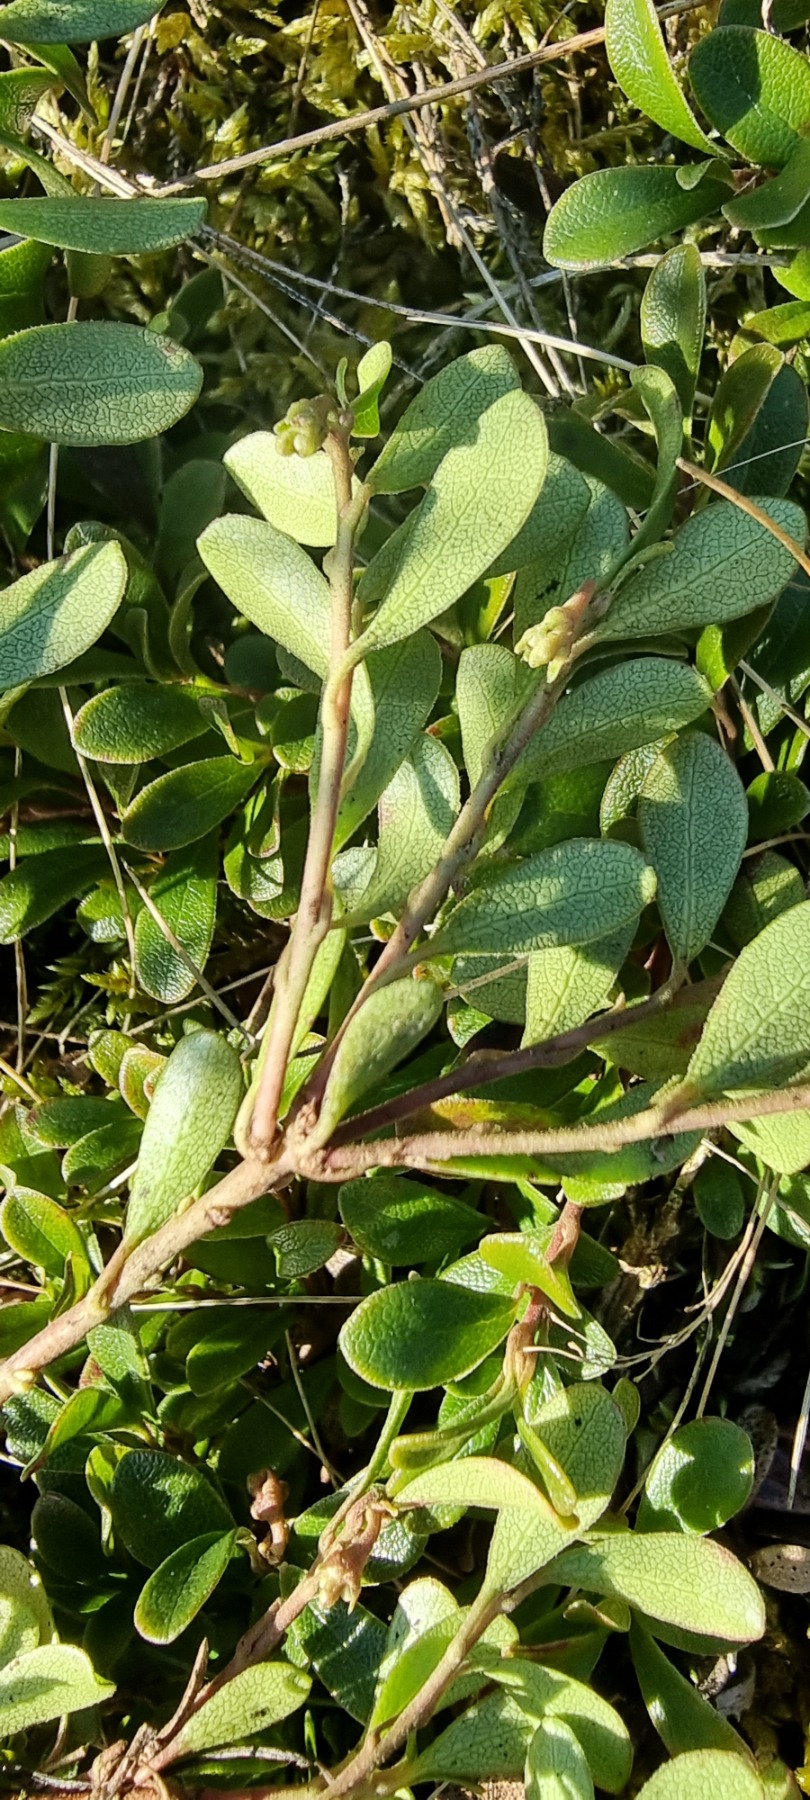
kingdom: Plantae
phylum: Tracheophyta
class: Magnoliopsida
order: Ericales
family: Ericaceae
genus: Arctostaphylos
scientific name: Arctostaphylos uva-ursi
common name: Hede-melbærris
